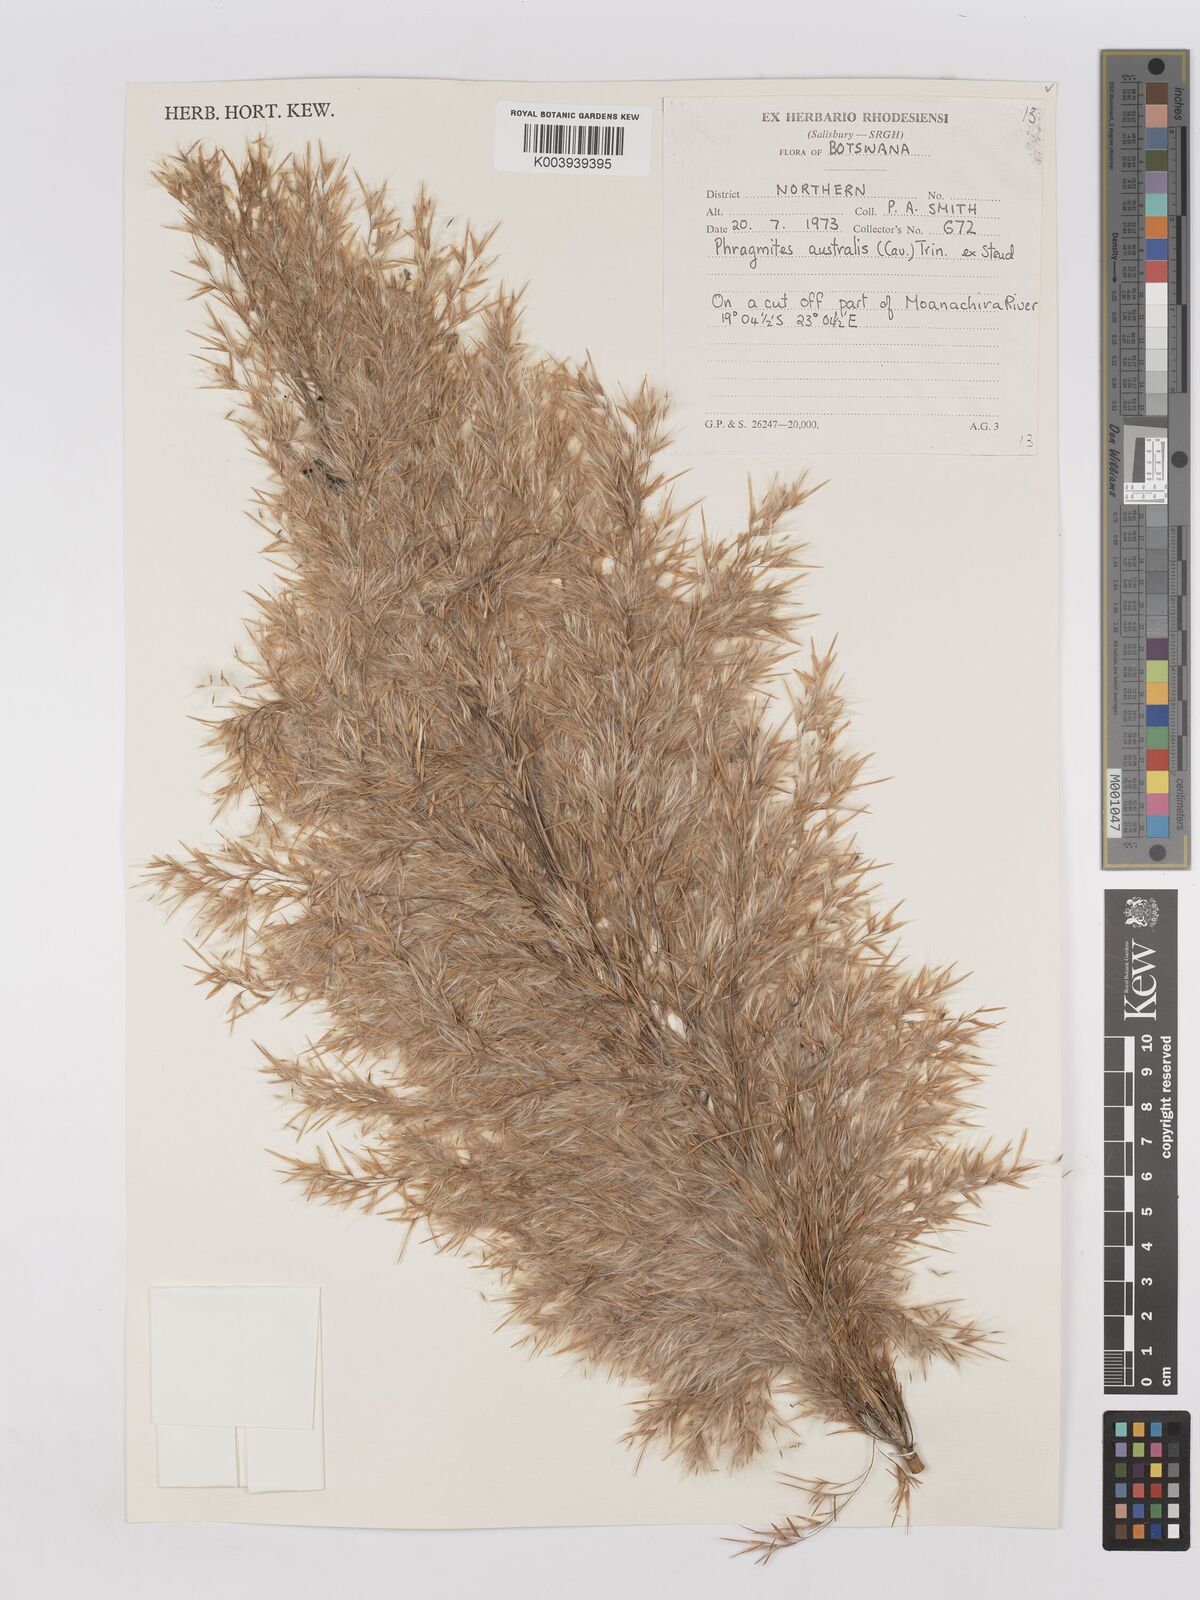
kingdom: Plantae
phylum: Tracheophyta
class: Liliopsida
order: Poales
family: Poaceae
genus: Phragmites
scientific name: Phragmites australis
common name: Common reed
